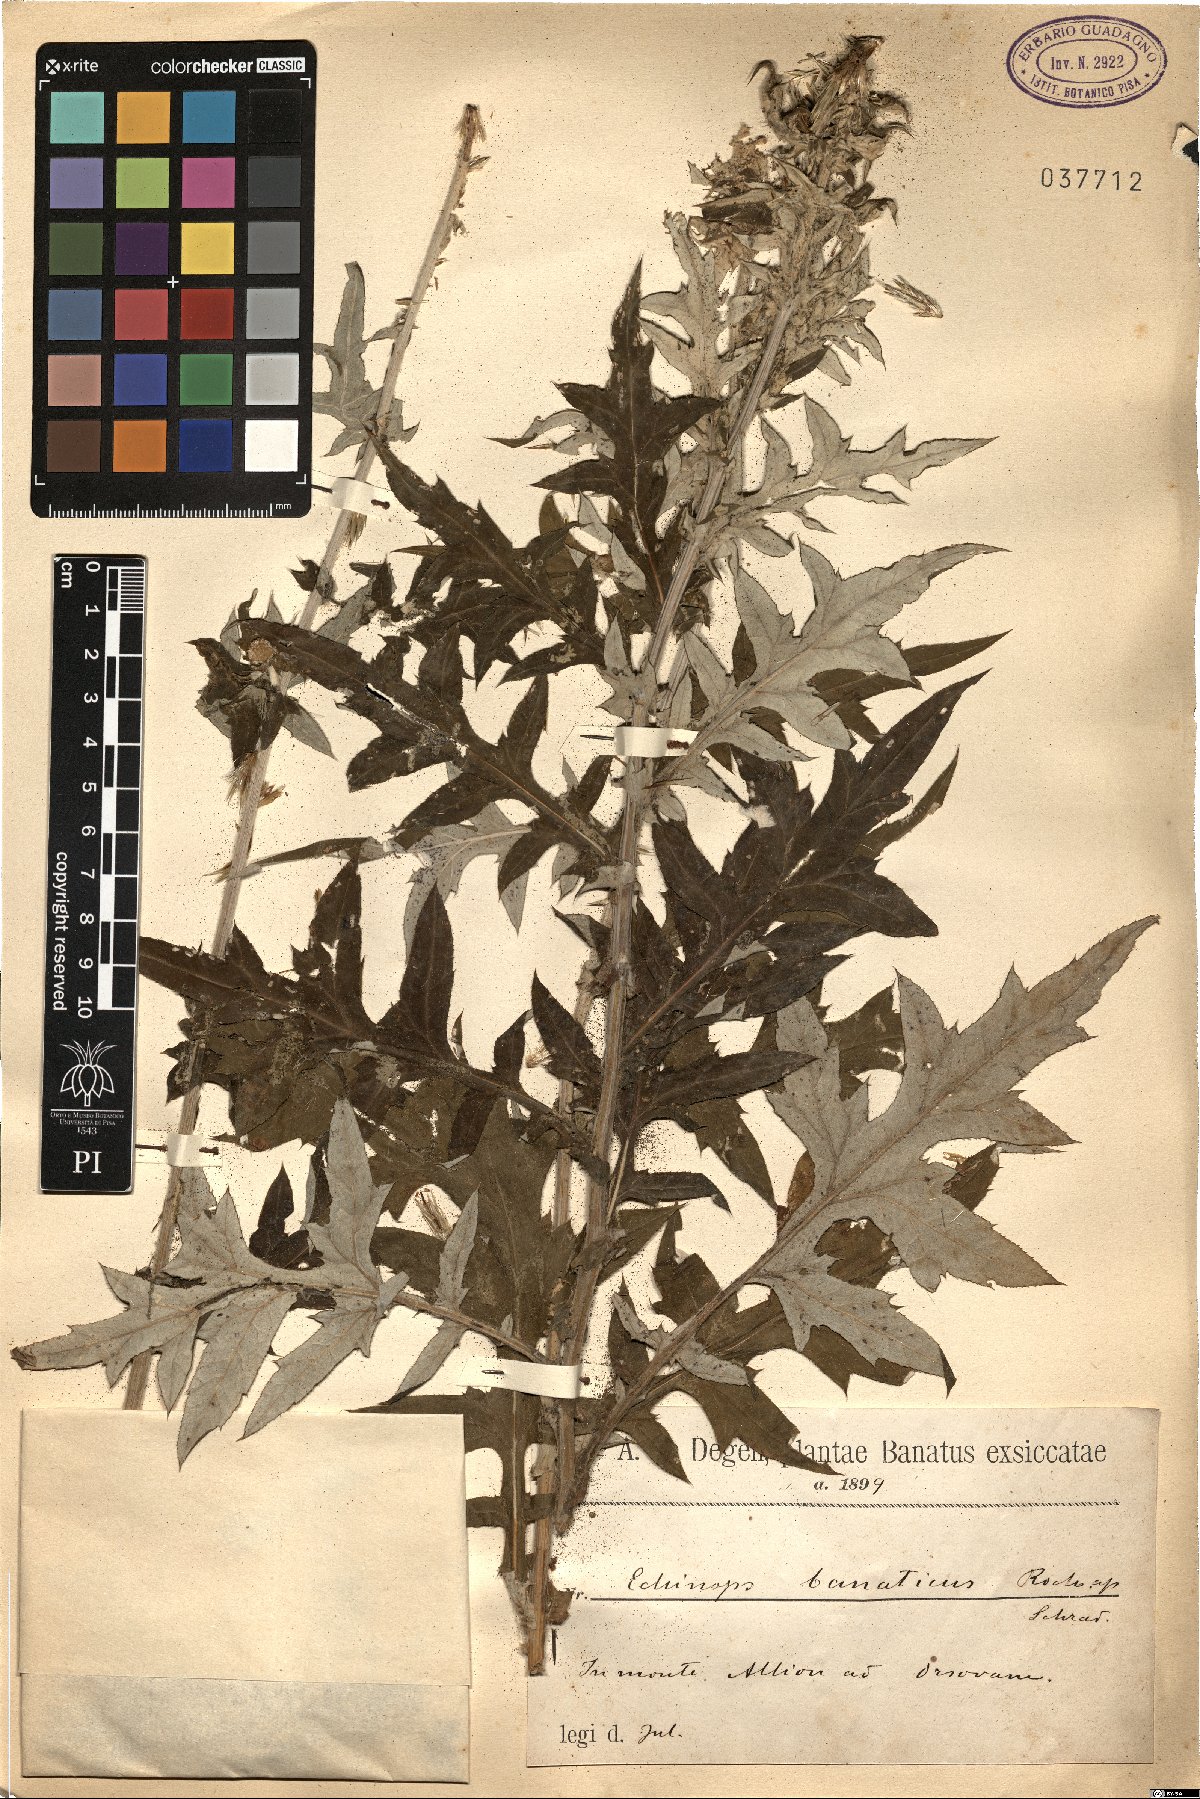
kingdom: Plantae
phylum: Tracheophyta
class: Magnoliopsida
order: Asterales
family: Asteraceae
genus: Echinops
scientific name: Echinops banaticus
